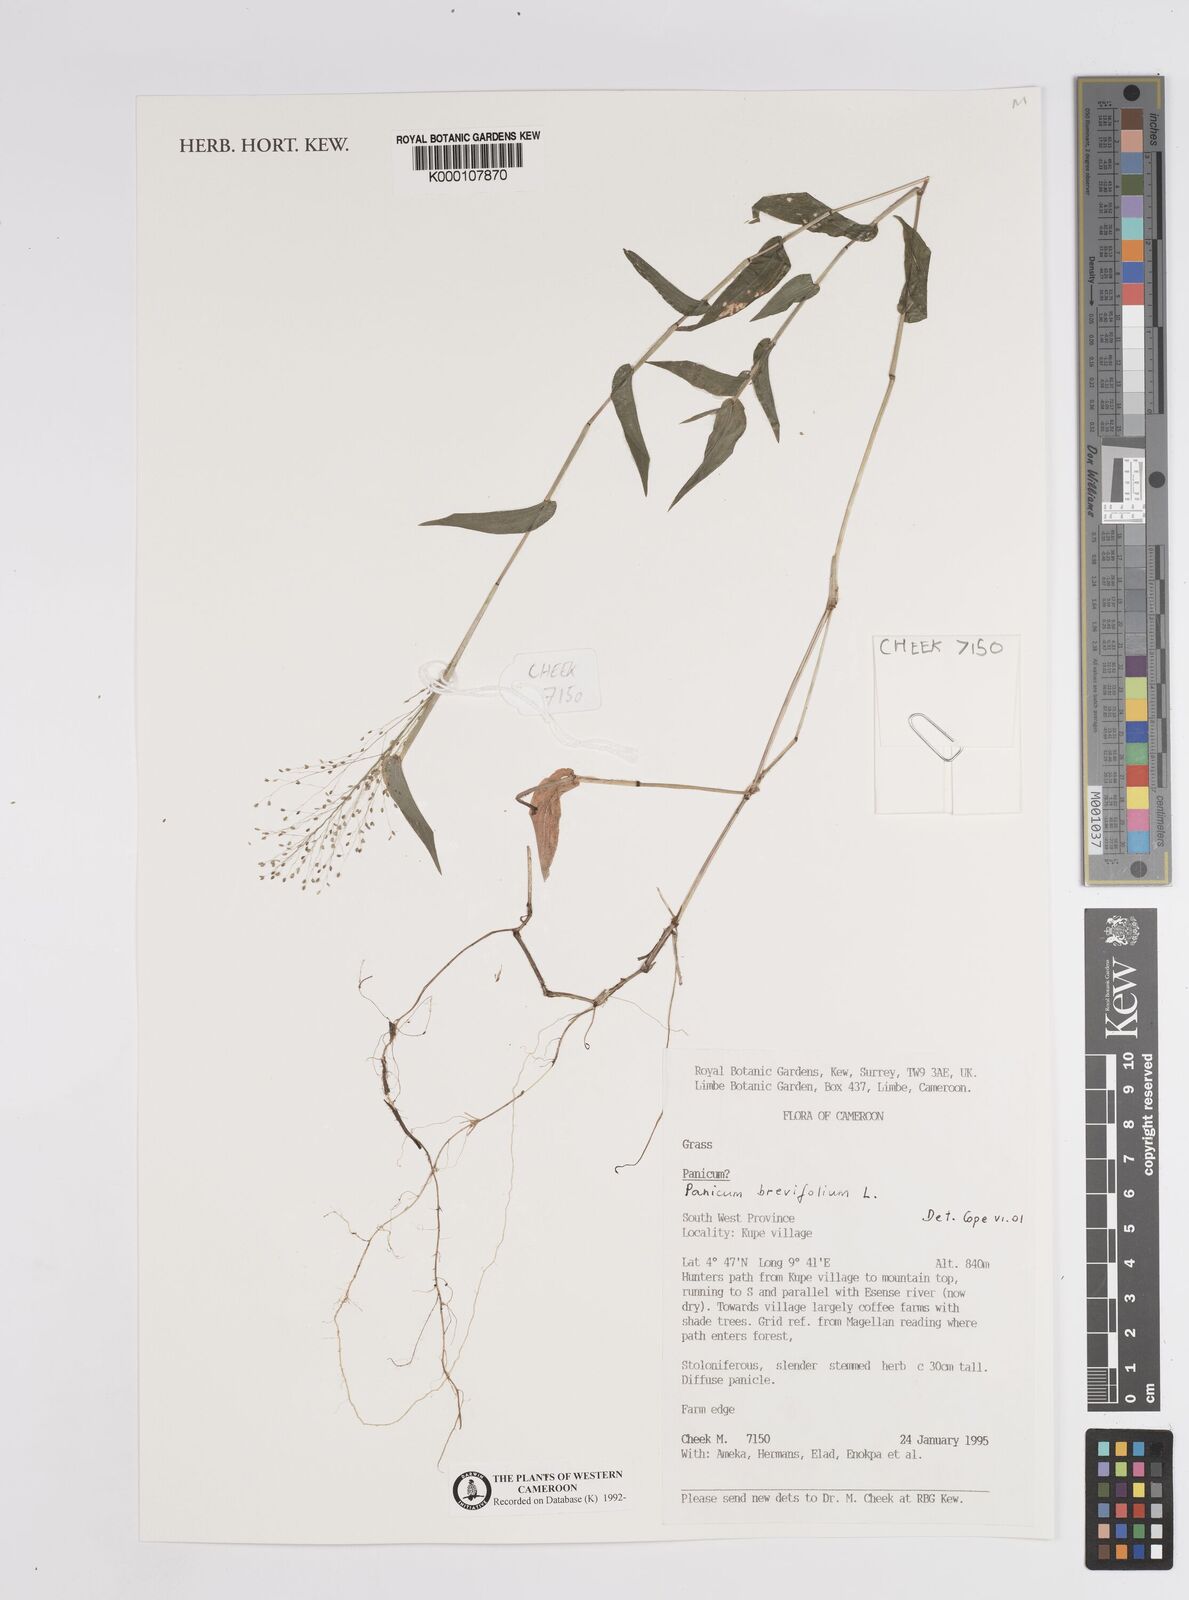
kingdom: Plantae
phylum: Tracheophyta
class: Liliopsida
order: Poales
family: Poaceae
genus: Panicum
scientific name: Panicum brevifolium
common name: Shortleaf panic grass
